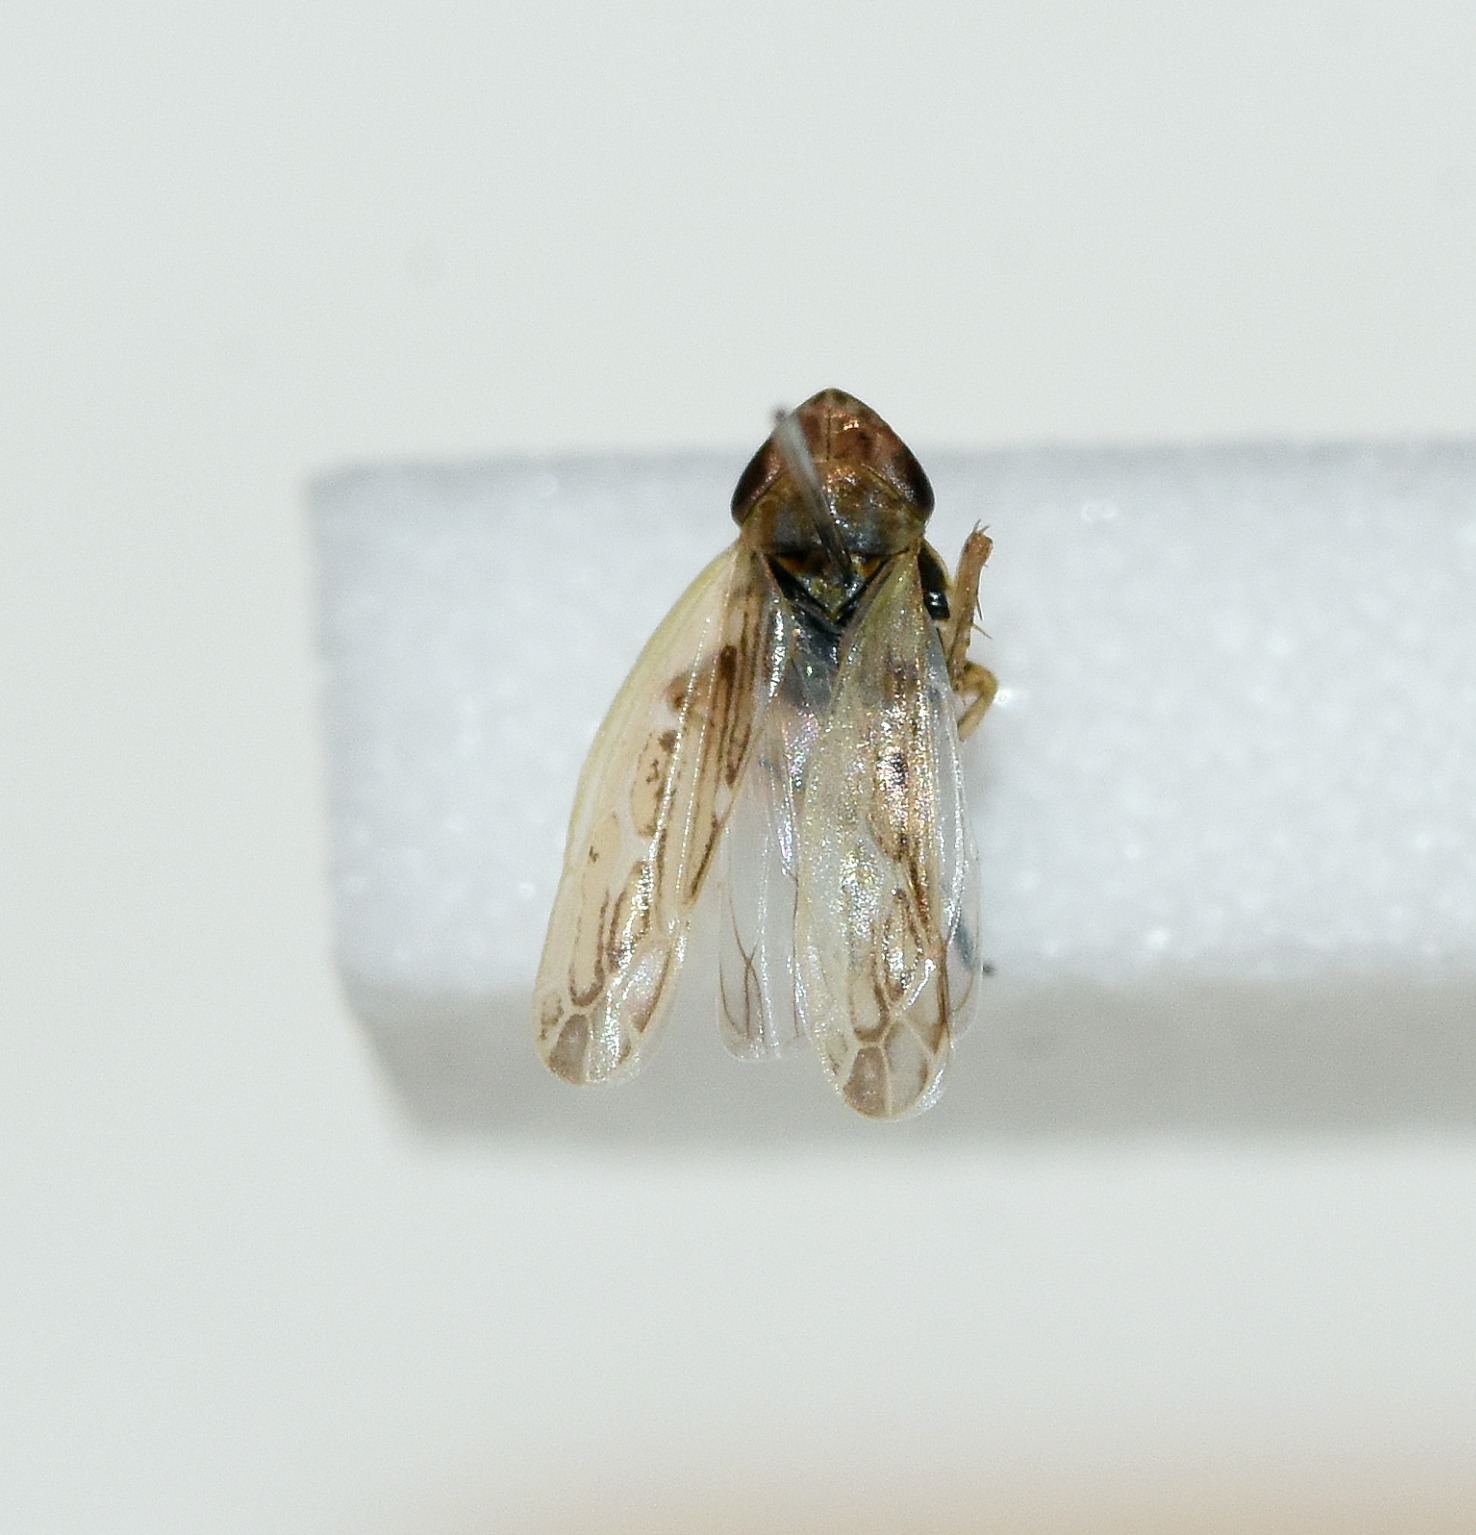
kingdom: Animalia
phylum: Arthropoda
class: Insecta
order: Hemiptera
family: Cicadellidae
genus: Psammotettix
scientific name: Psammotettix nodosus
